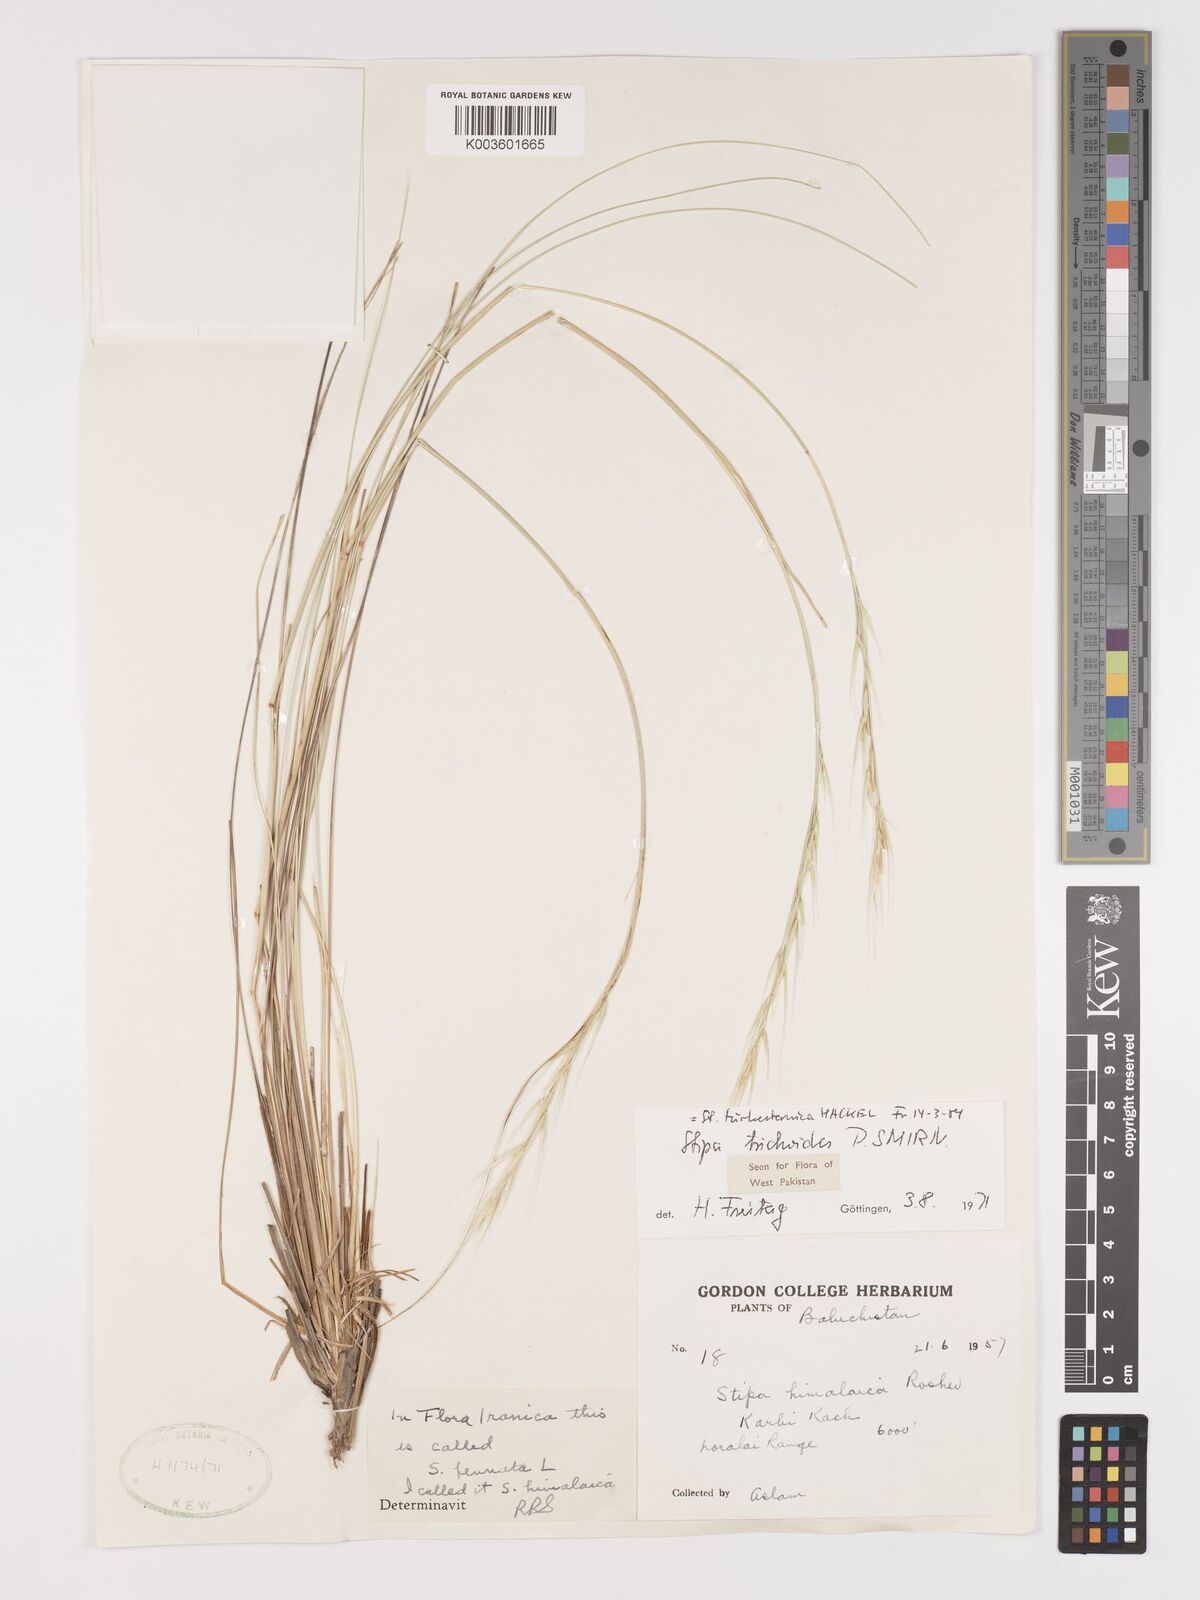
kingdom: Plantae
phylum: Tracheophyta
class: Liliopsida
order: Poales
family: Poaceae
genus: Stipa
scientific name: Stipa turkestanica
